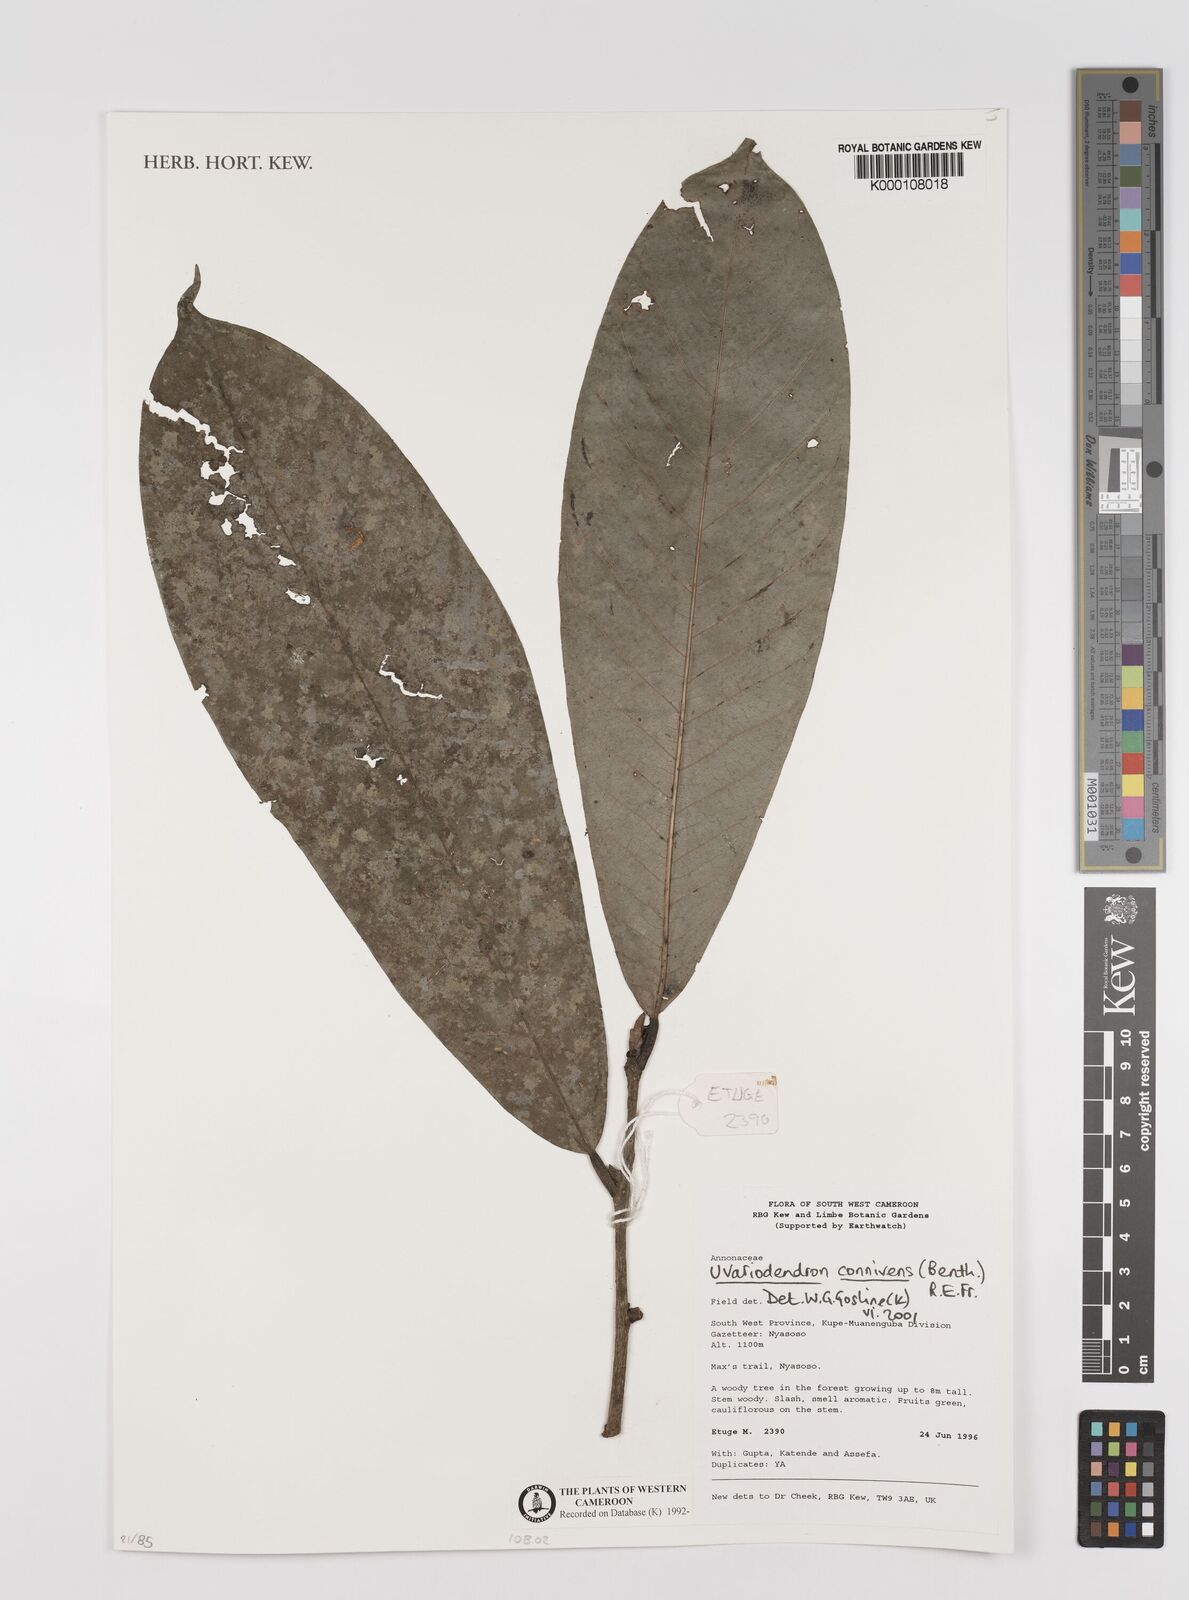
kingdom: Plantae
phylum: Tracheophyta
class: Magnoliopsida
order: Magnoliales
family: Annonaceae
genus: Uvariodendron
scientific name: Uvariodendron connivens
